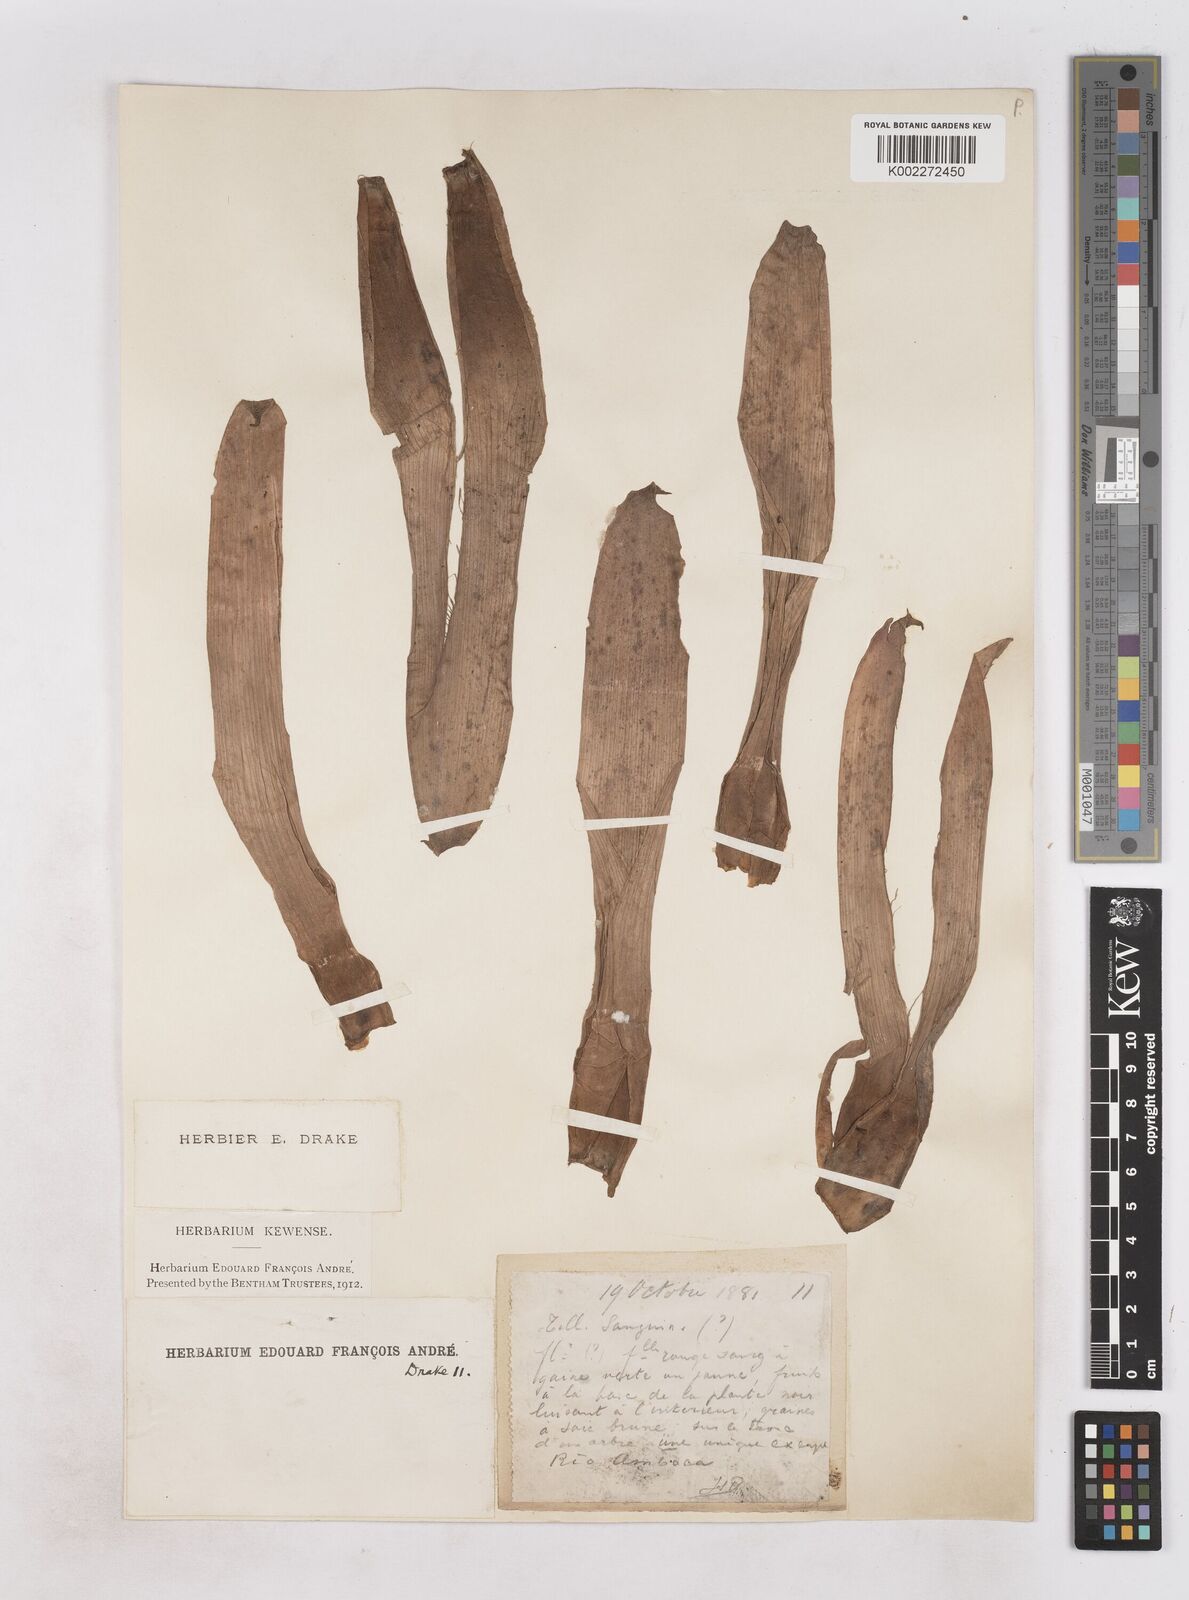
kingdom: Plantae
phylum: Tracheophyta
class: Liliopsida
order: Poales
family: Bromeliaceae
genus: Guzmania
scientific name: Guzmania sanguinea
